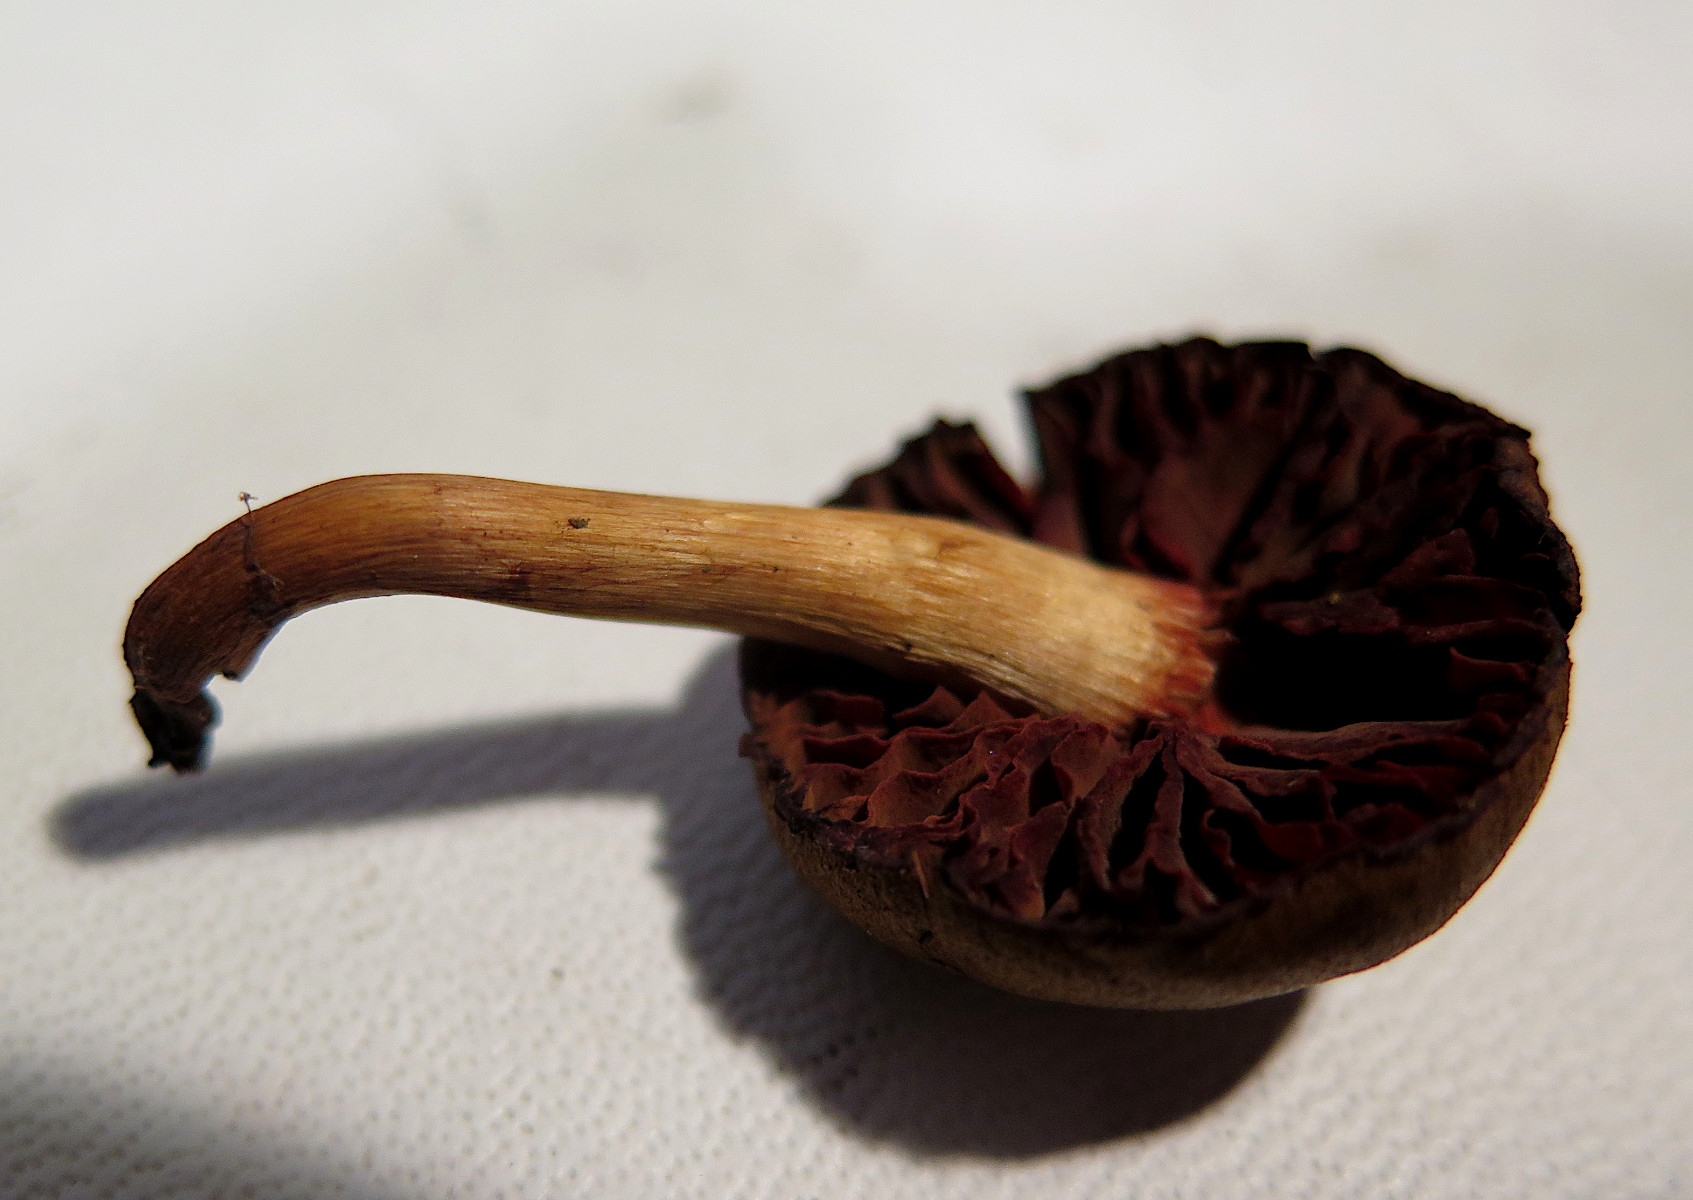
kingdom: Fungi
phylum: Basidiomycota
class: Agaricomycetes
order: Agaricales
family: Cortinariaceae
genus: Cortinarius
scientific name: Cortinarius purpureus
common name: brunrød slørhat
